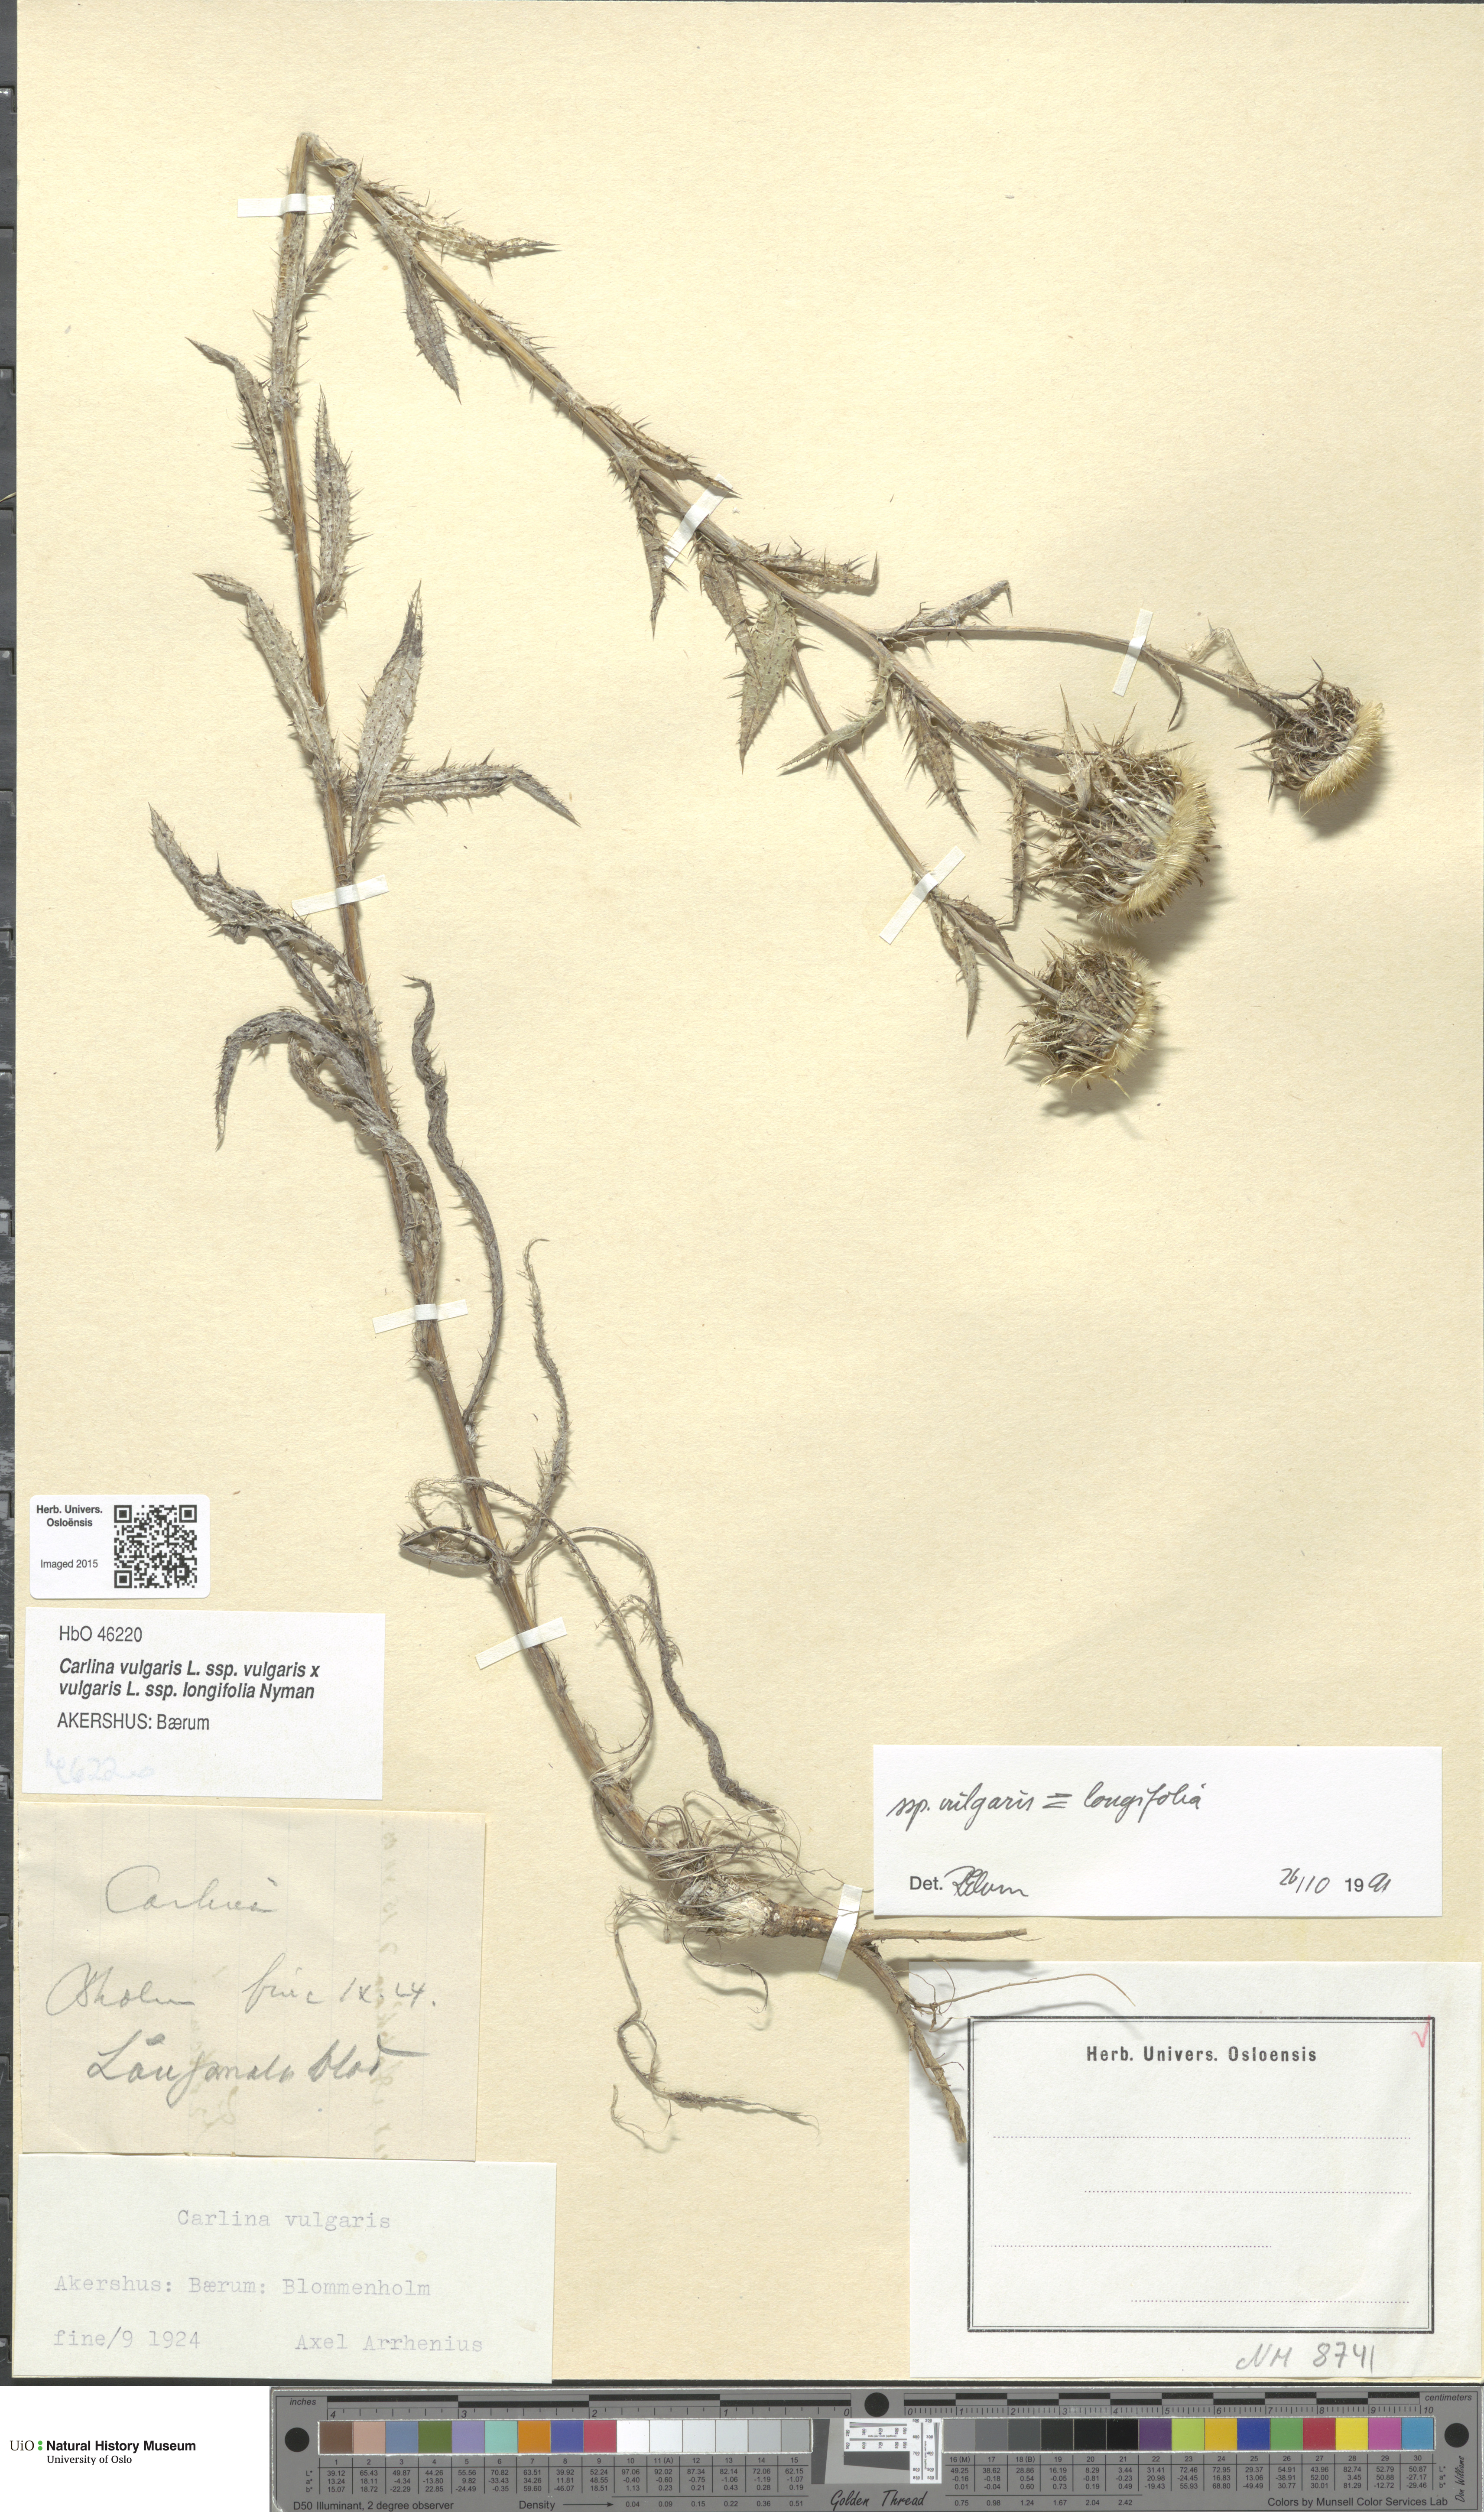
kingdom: Plantae
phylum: Tracheophyta
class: Magnoliopsida
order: Asterales
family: Asteraceae
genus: Carlina
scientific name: Carlina
